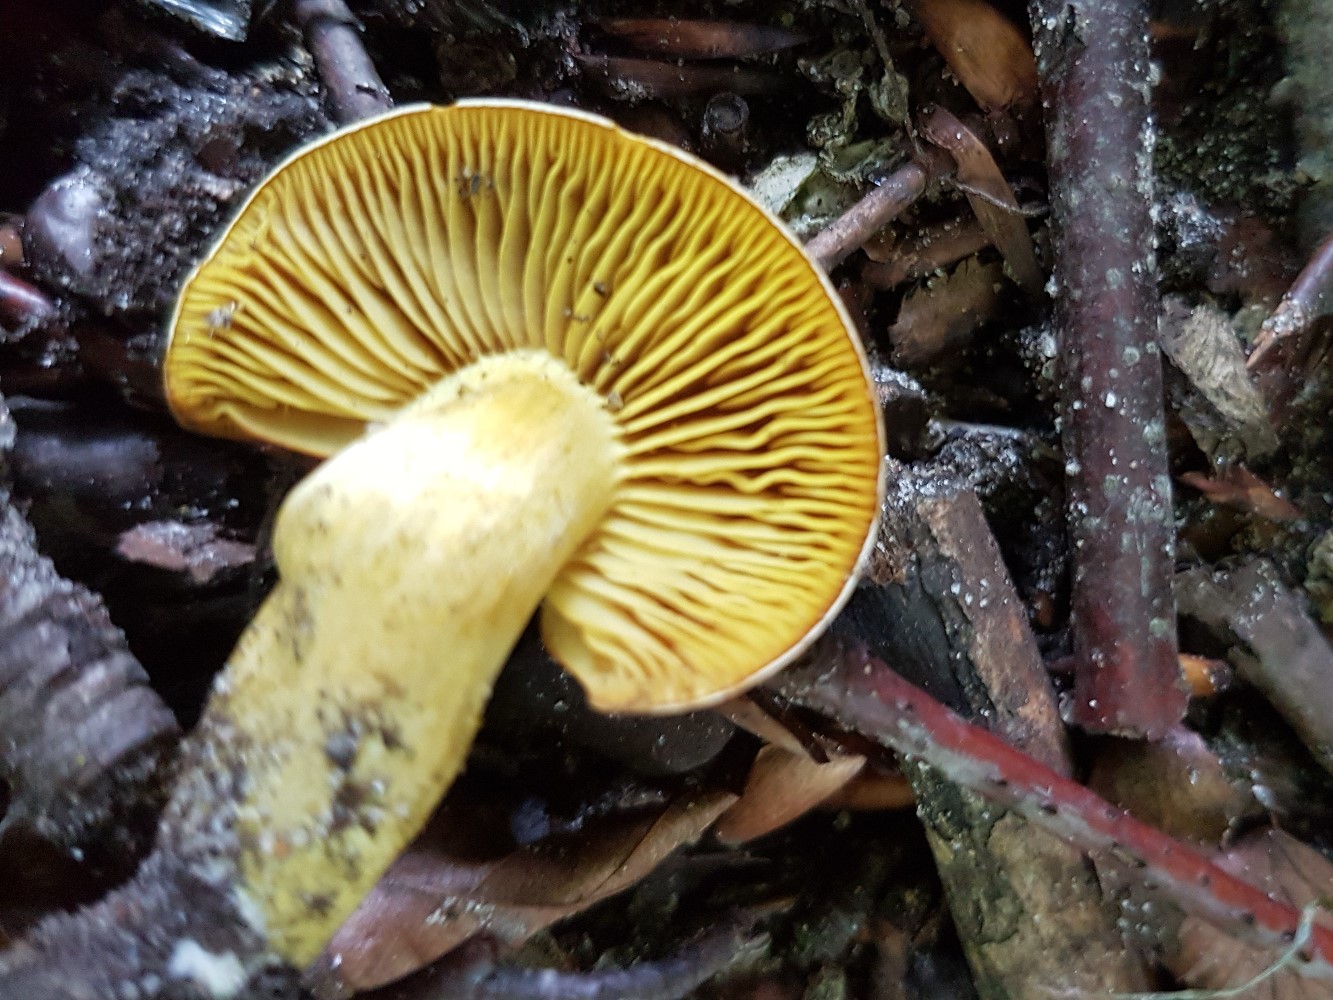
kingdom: Fungi
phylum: Basidiomycota
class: Agaricomycetes
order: Agaricales
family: Tricholomataceae
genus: Tricholoma
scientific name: Tricholoma sulphureum
